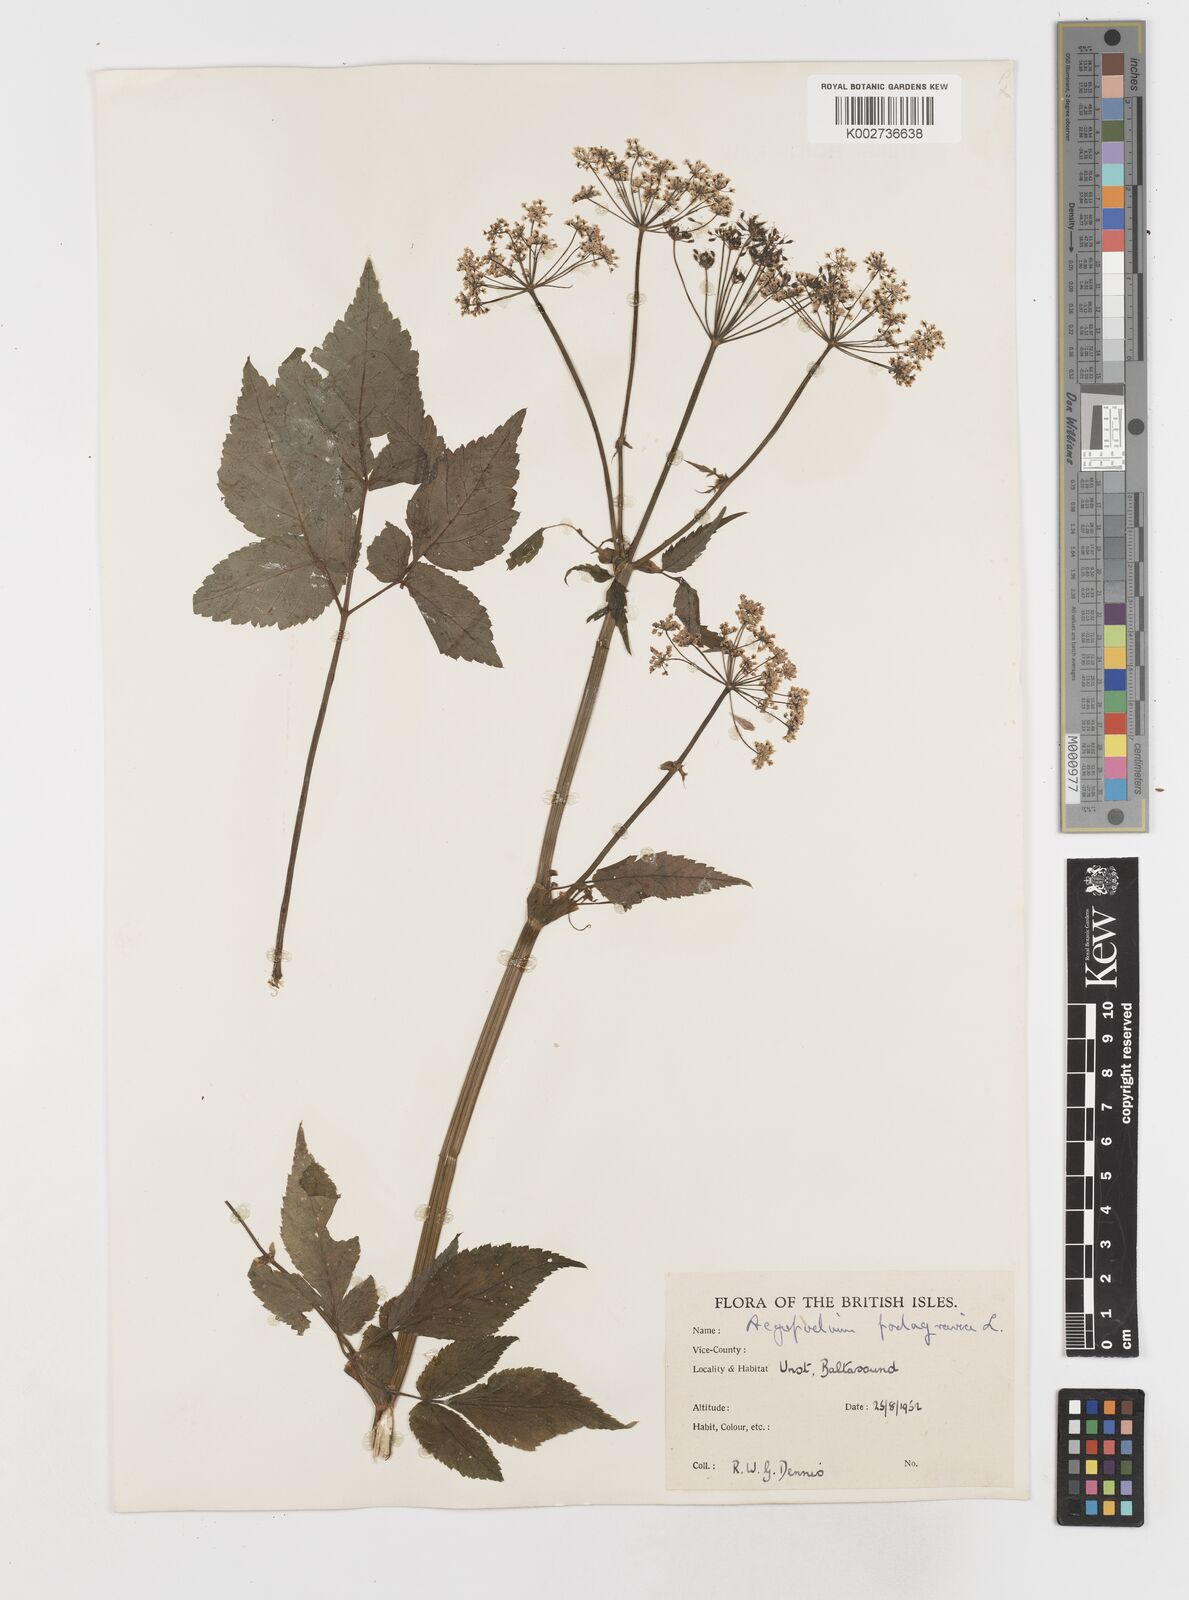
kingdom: Plantae
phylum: Tracheophyta
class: Magnoliopsida
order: Apiales
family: Apiaceae
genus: Aegopodium
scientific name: Aegopodium podagraria
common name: Ground-elder
